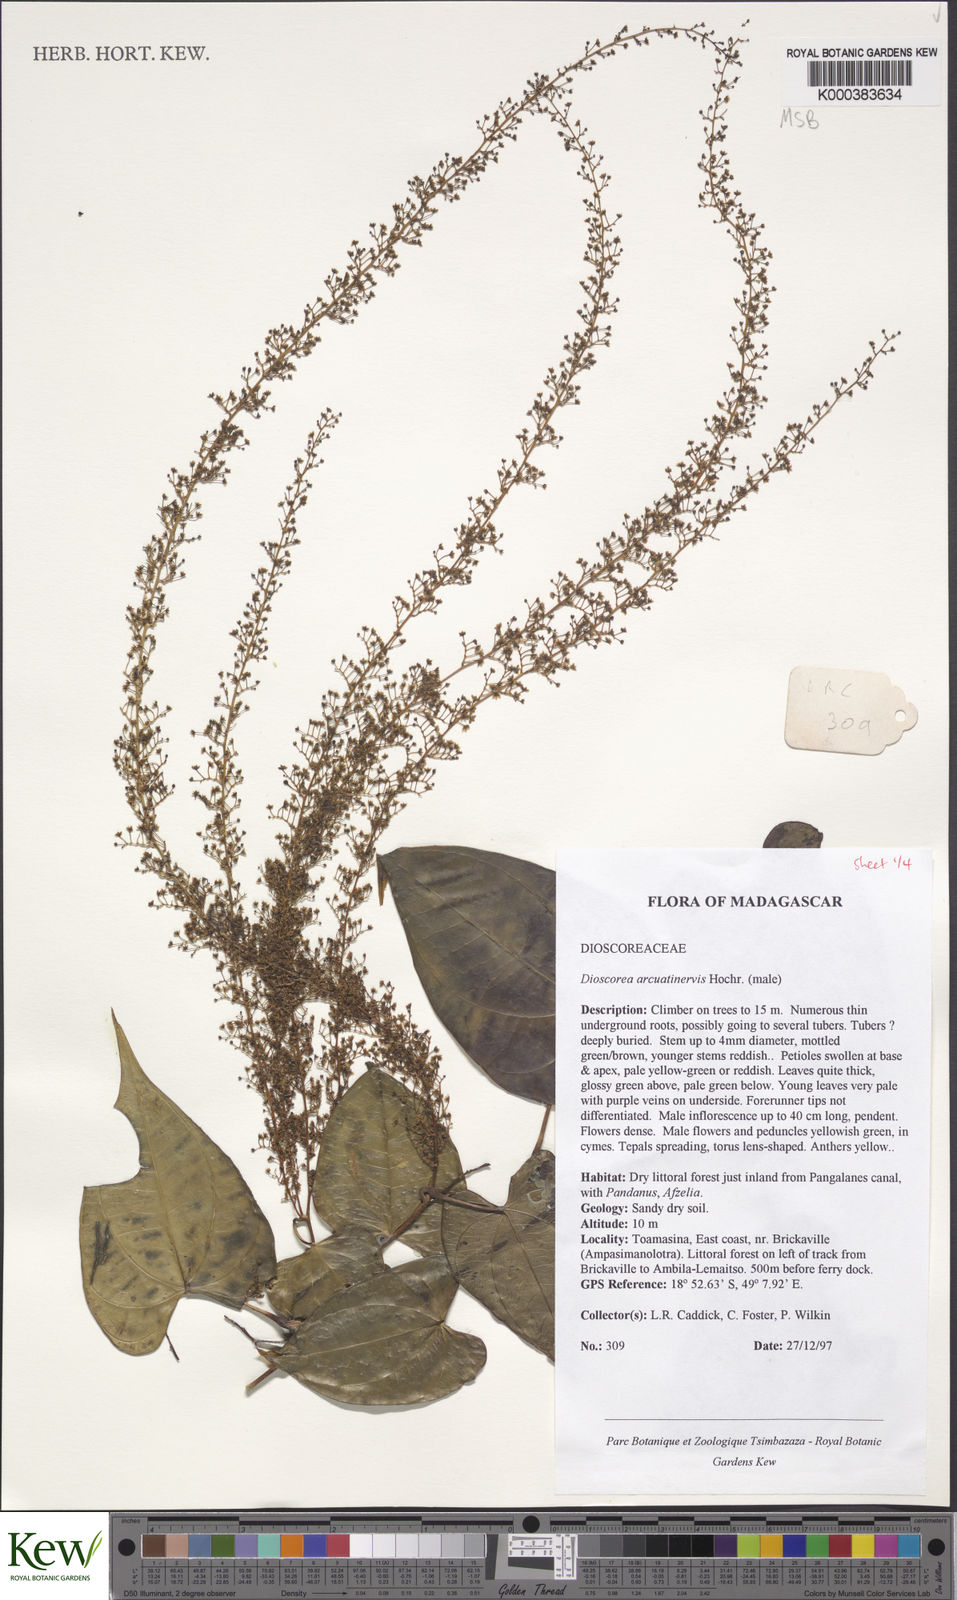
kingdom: Plantae
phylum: Tracheophyta
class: Liliopsida
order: Dioscoreales
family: Dioscoreaceae
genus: Dioscorea
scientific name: Dioscorea arcuatinervis
